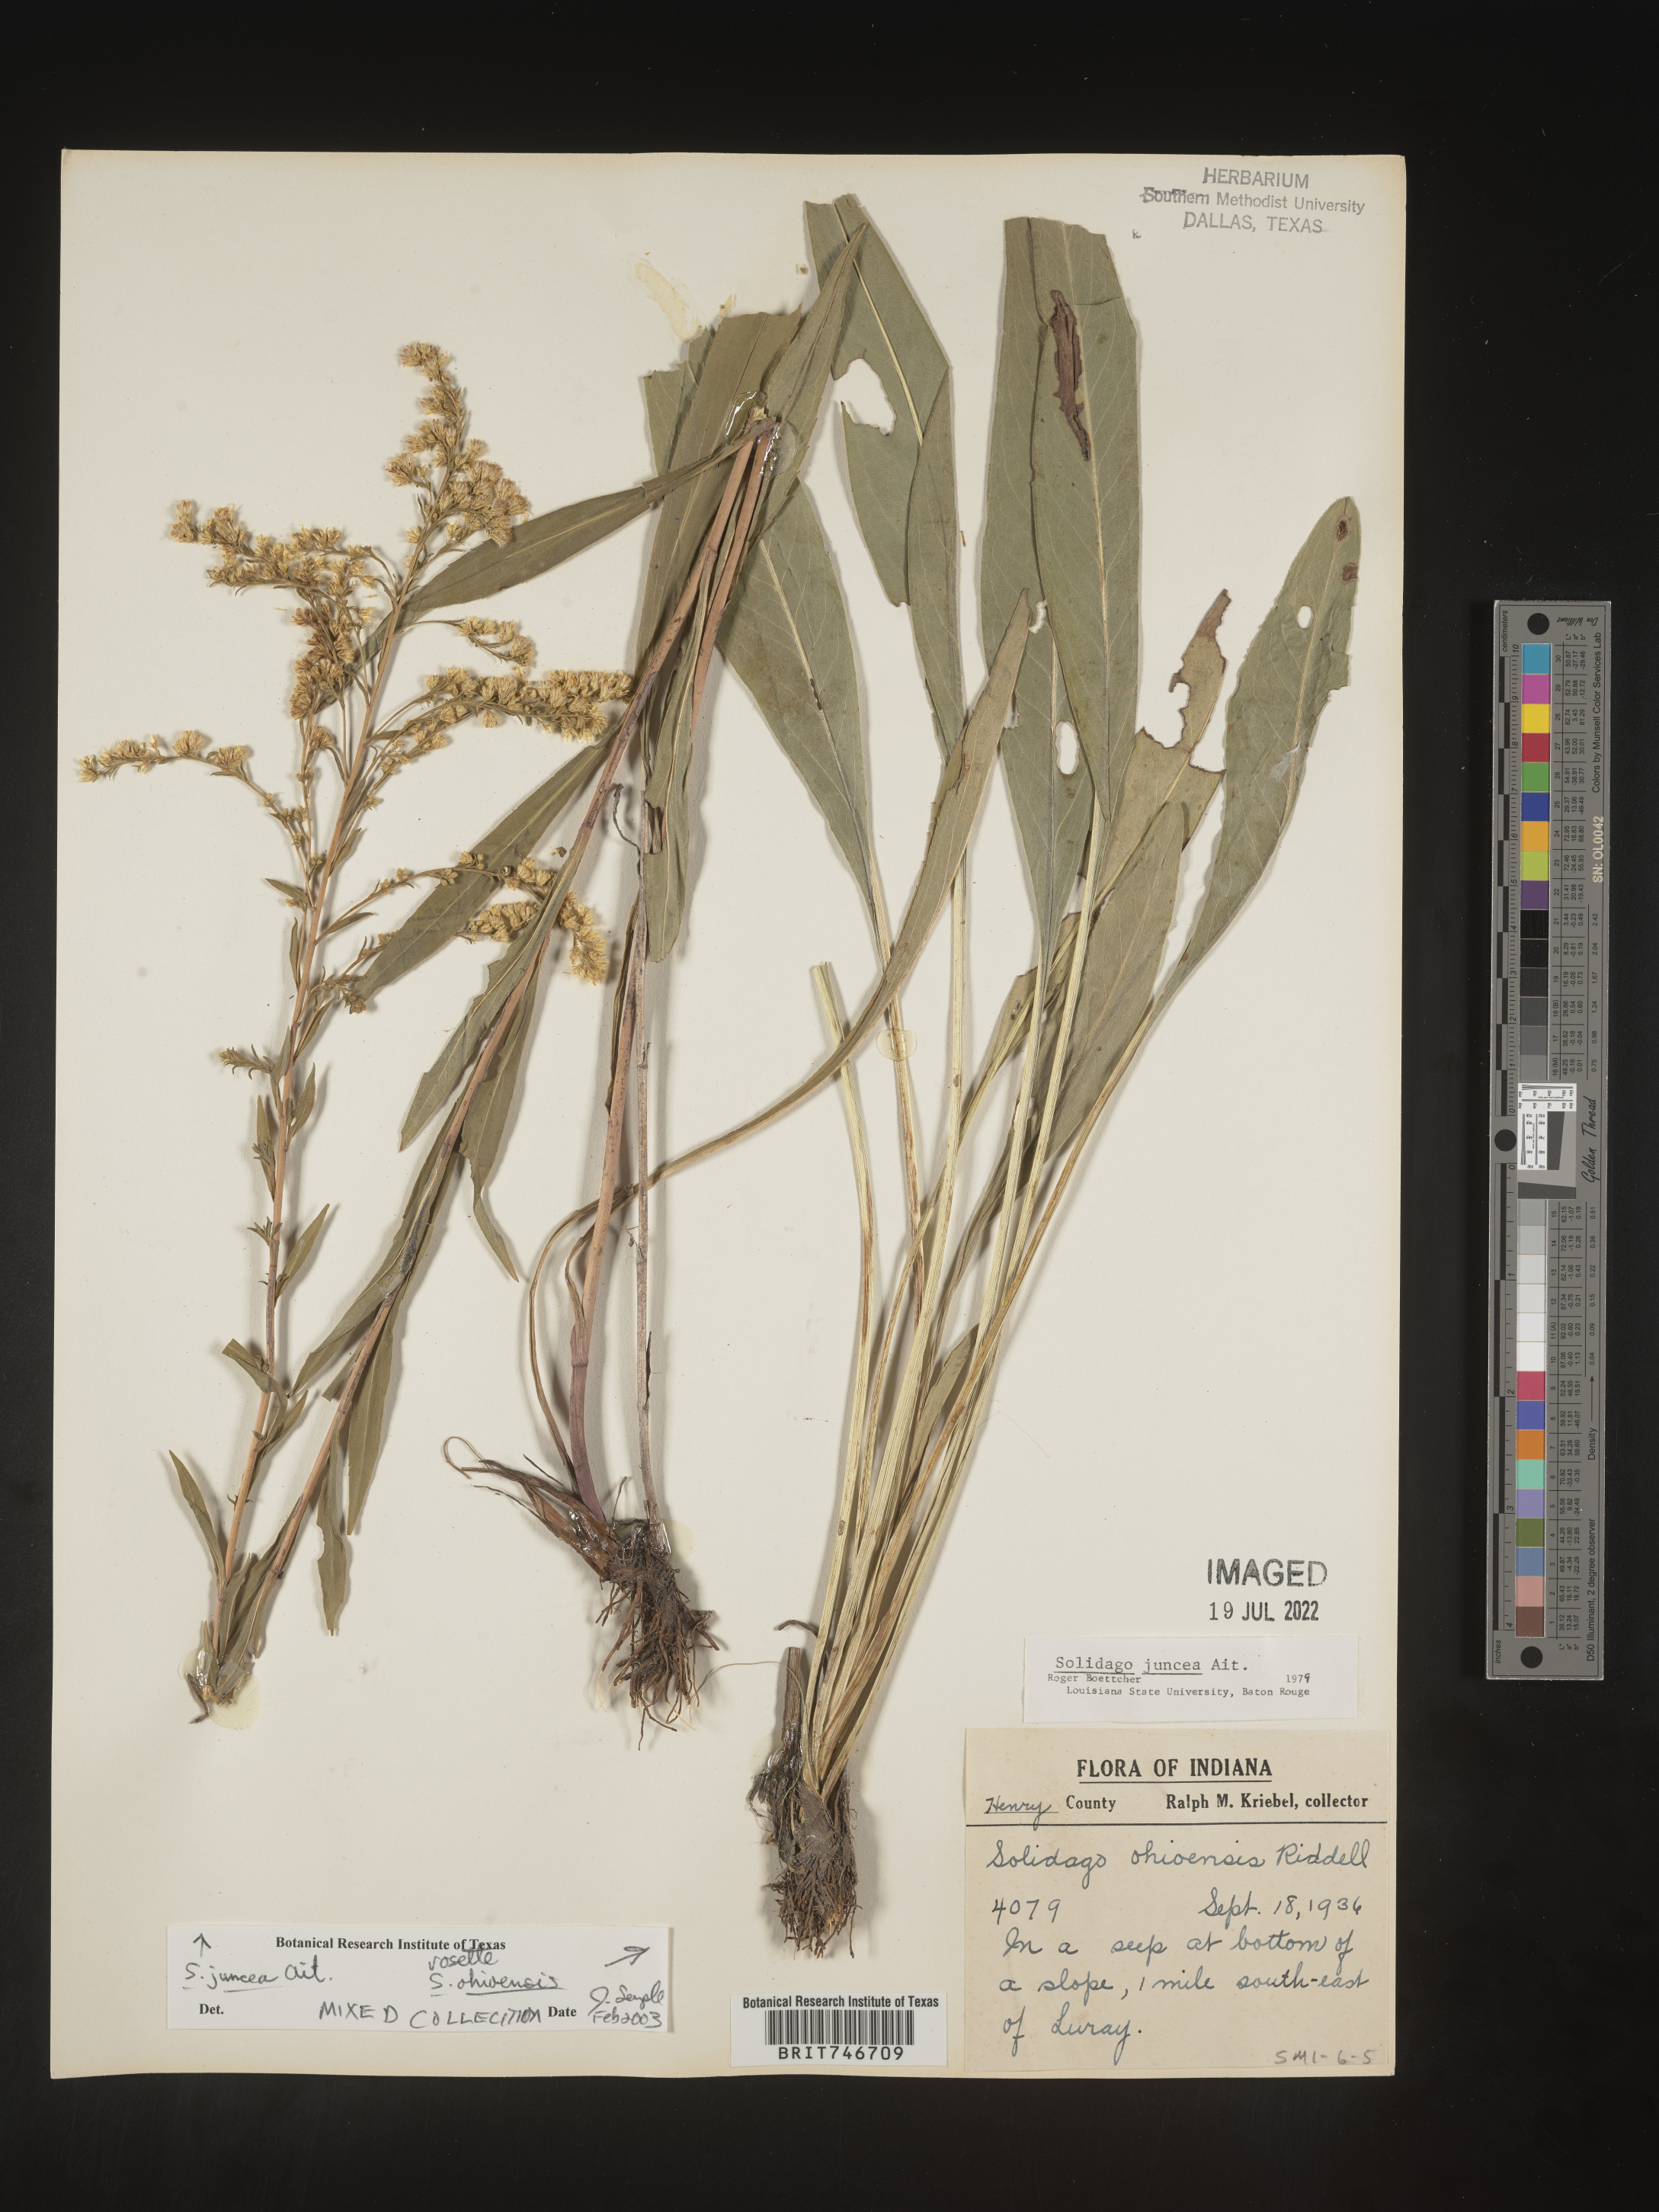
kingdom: Plantae
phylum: Tracheophyta
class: Magnoliopsida
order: Asterales
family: Asteraceae
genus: Solidago
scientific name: Solidago juncea
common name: Early goldenrod
